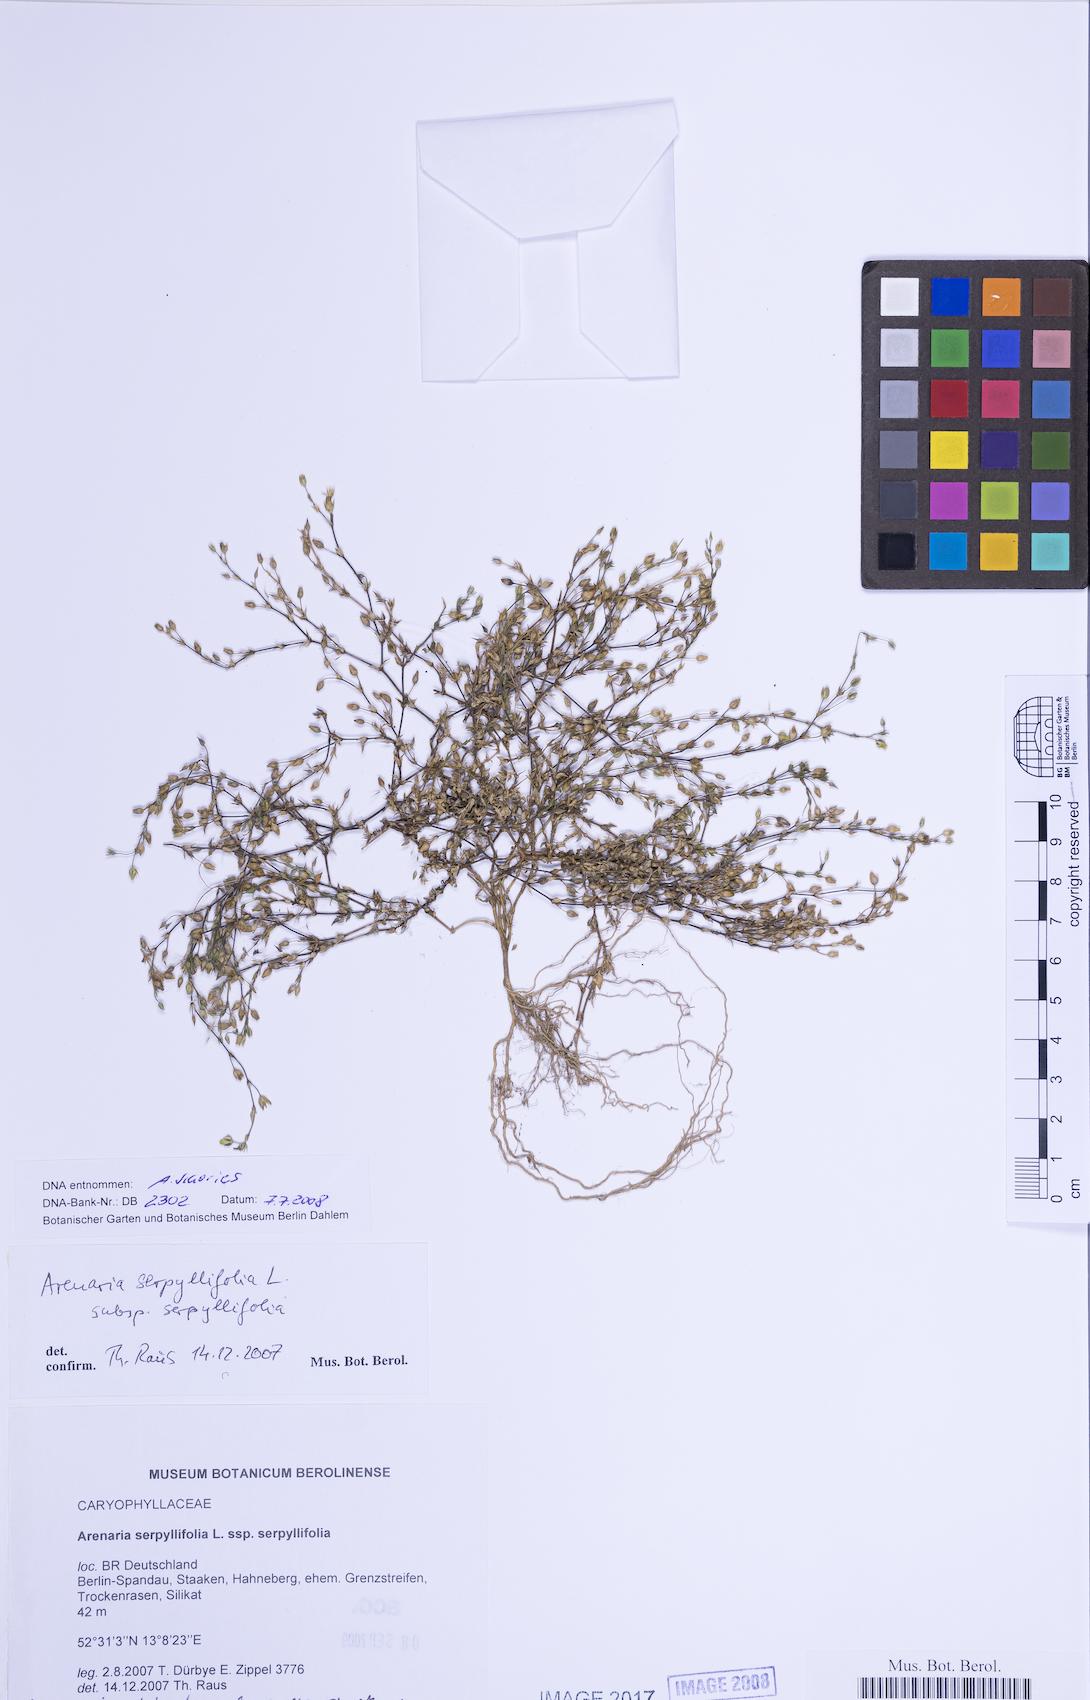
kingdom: Plantae
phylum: Tracheophyta
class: Magnoliopsida
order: Caryophyllales
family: Caryophyllaceae
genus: Arenaria
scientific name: Arenaria serpyllifolia
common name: Thyme-leaved sandwort
